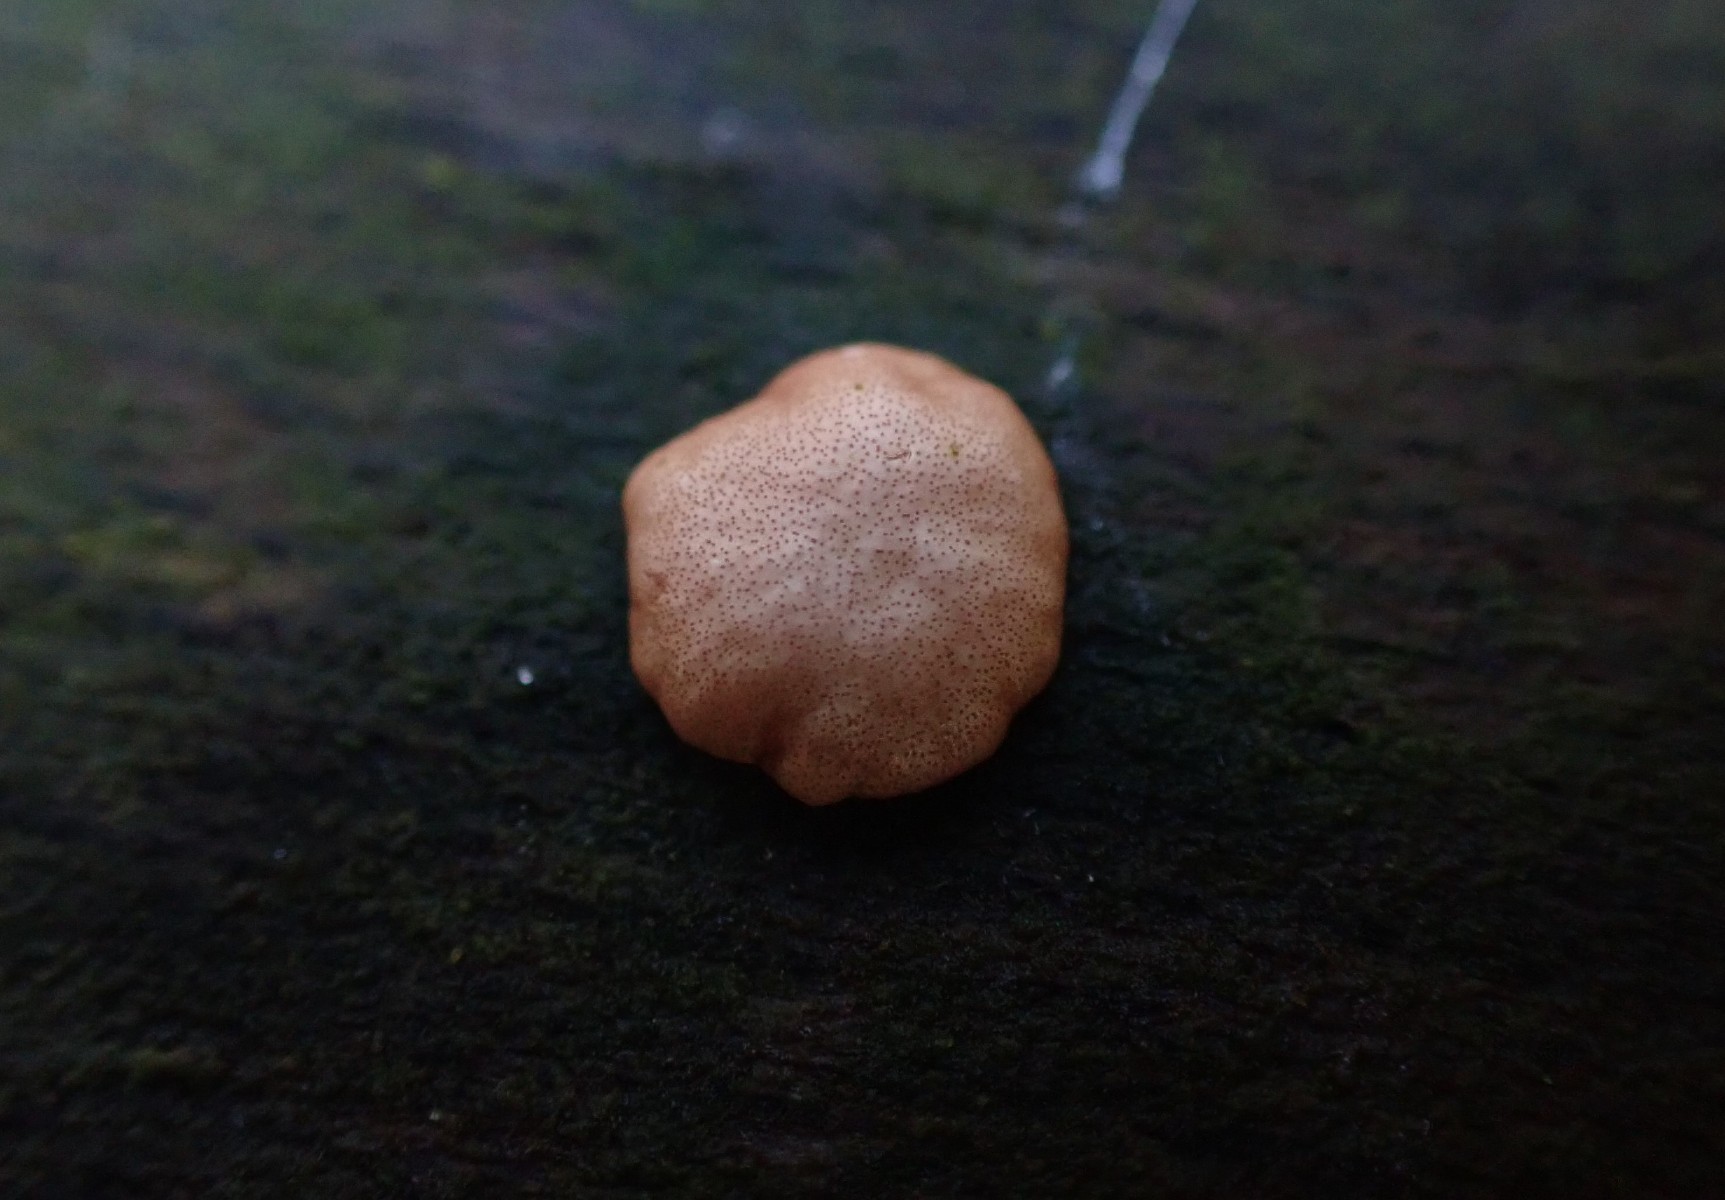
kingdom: Fungi
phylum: Ascomycota
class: Sordariomycetes
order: Hypocreales
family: Hypocreaceae
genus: Trichoderma
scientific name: Trichoderma europaeum
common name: rosabrun kødkerne
